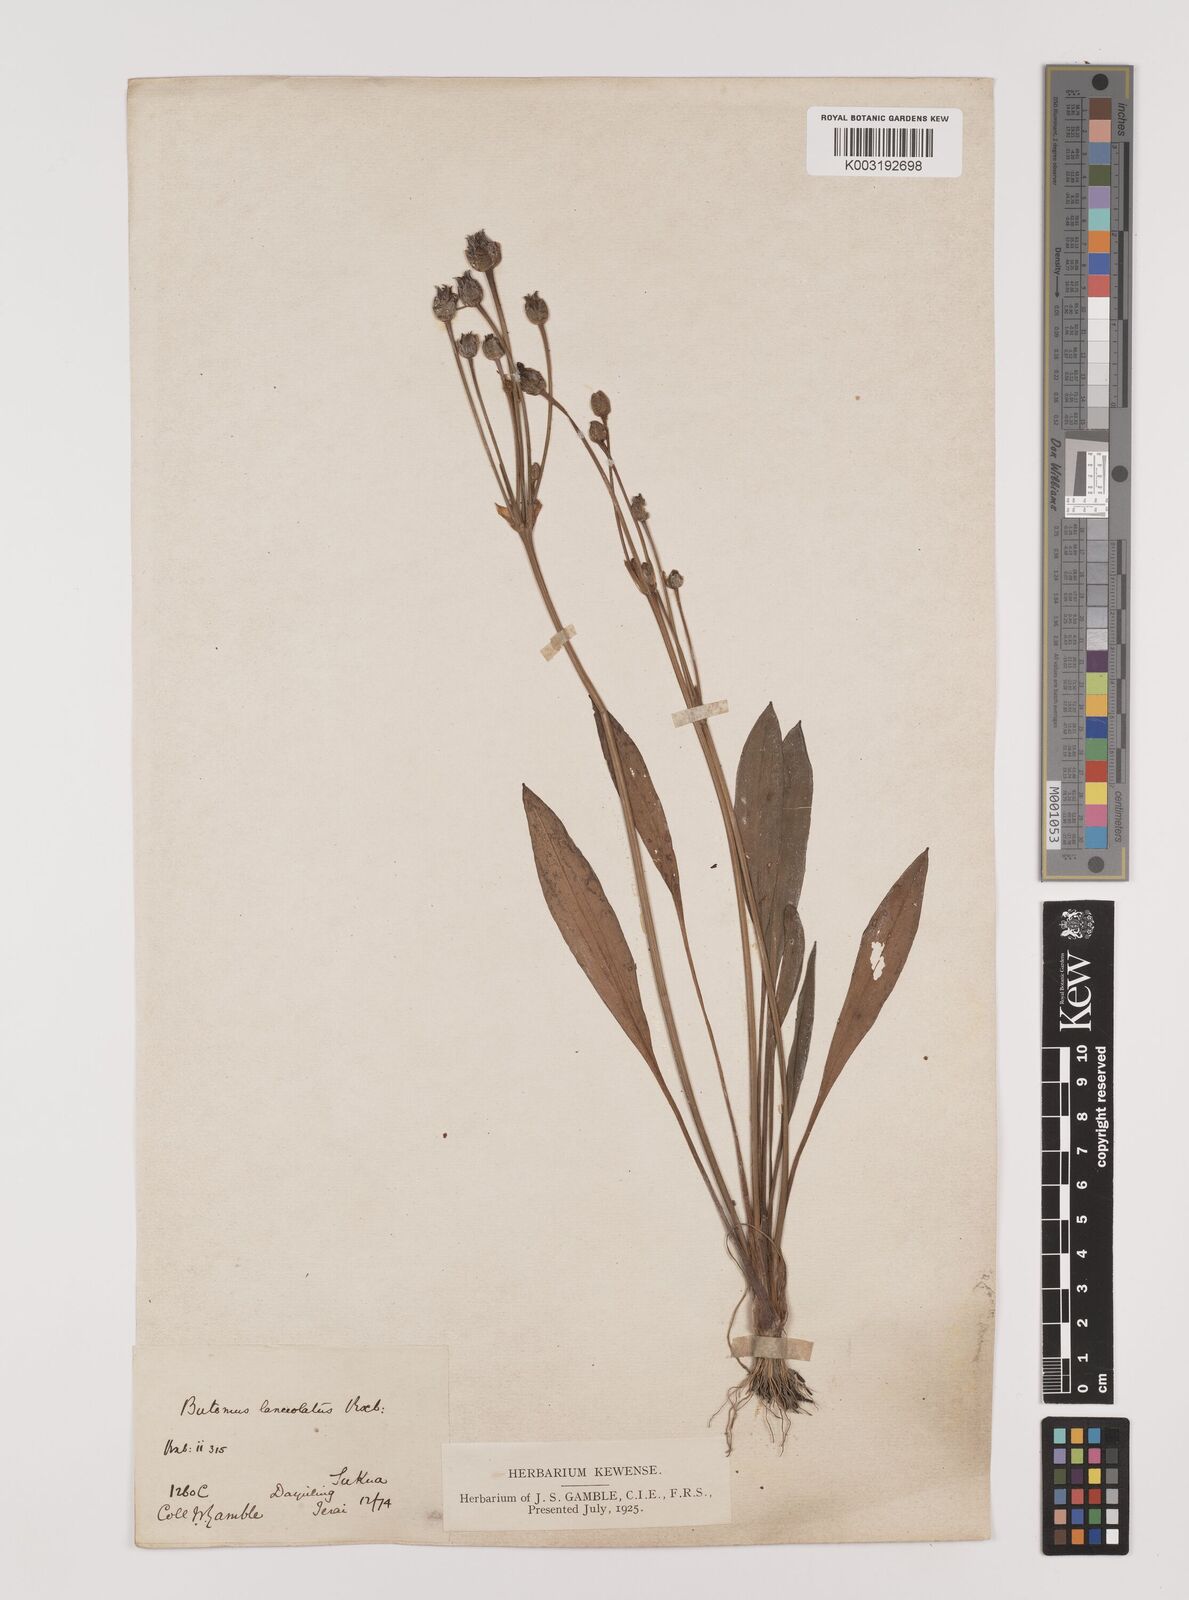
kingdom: Plantae
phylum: Tracheophyta
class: Liliopsida
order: Alismatales
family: Alismataceae
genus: Butomopsis
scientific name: Butomopsis latifolia
